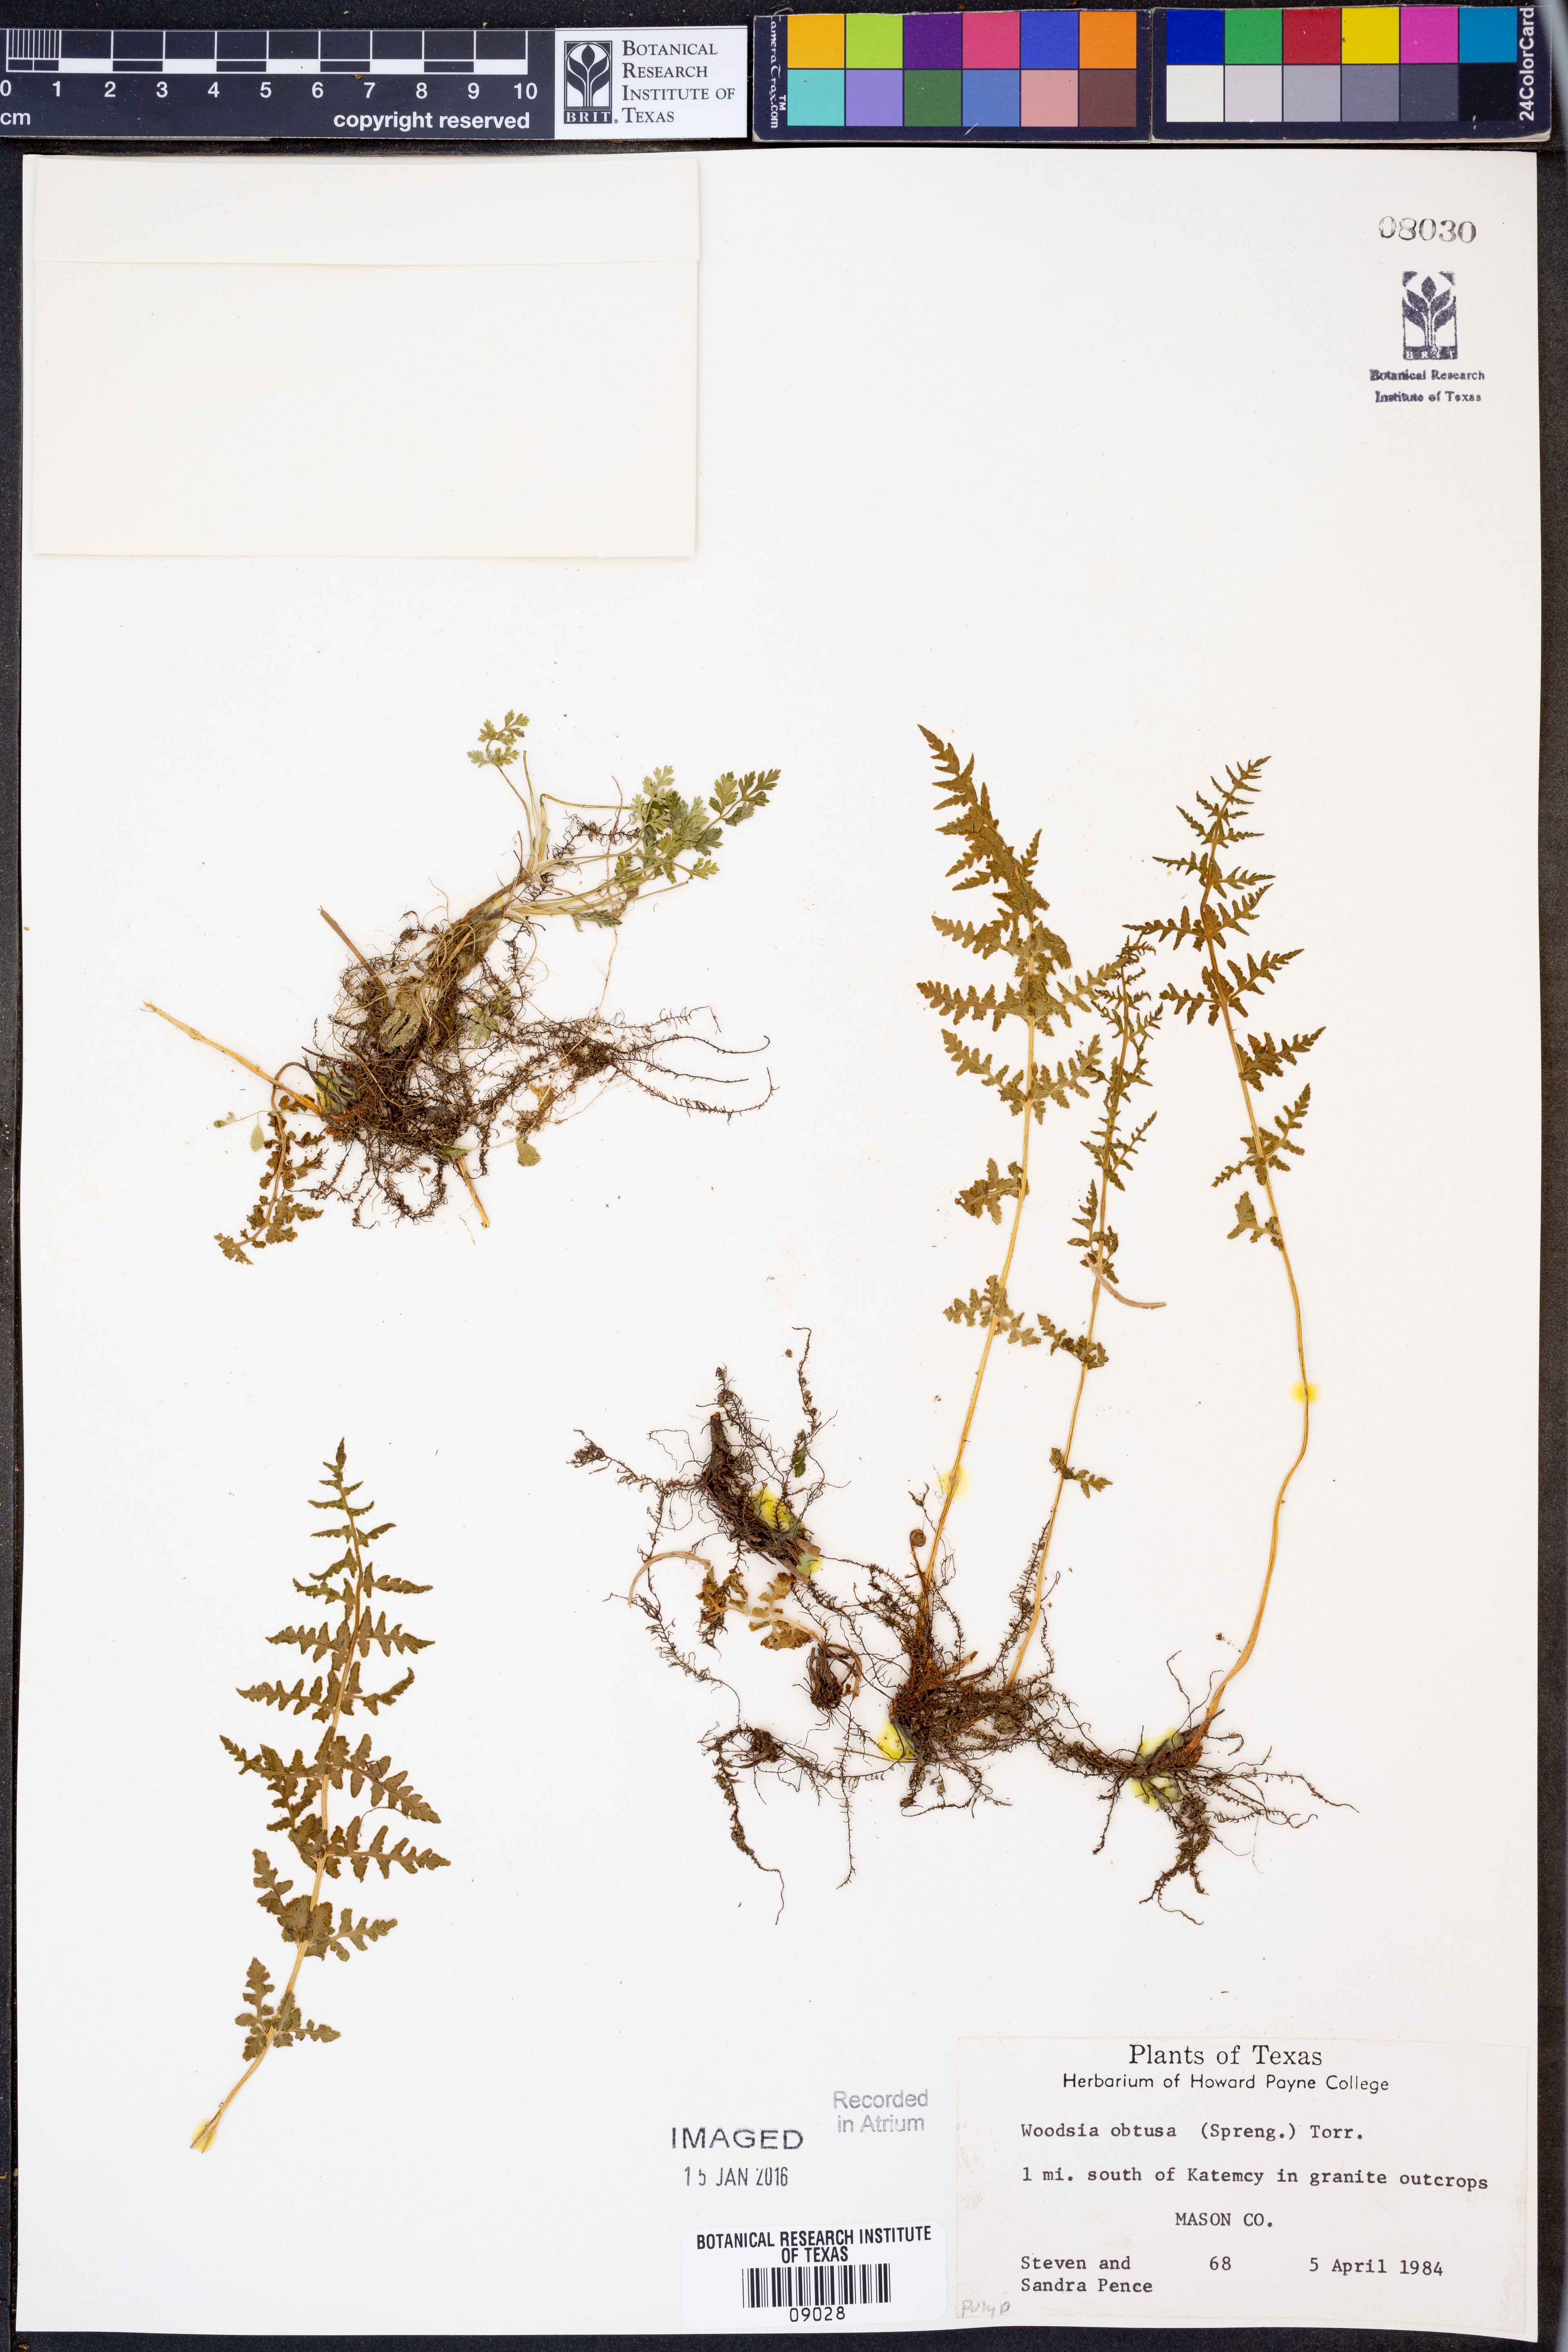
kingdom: Plantae
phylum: Tracheophyta
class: Polypodiopsida
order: Polypodiales
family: Woodsiaceae
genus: Physematium
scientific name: Physematium obtusum
